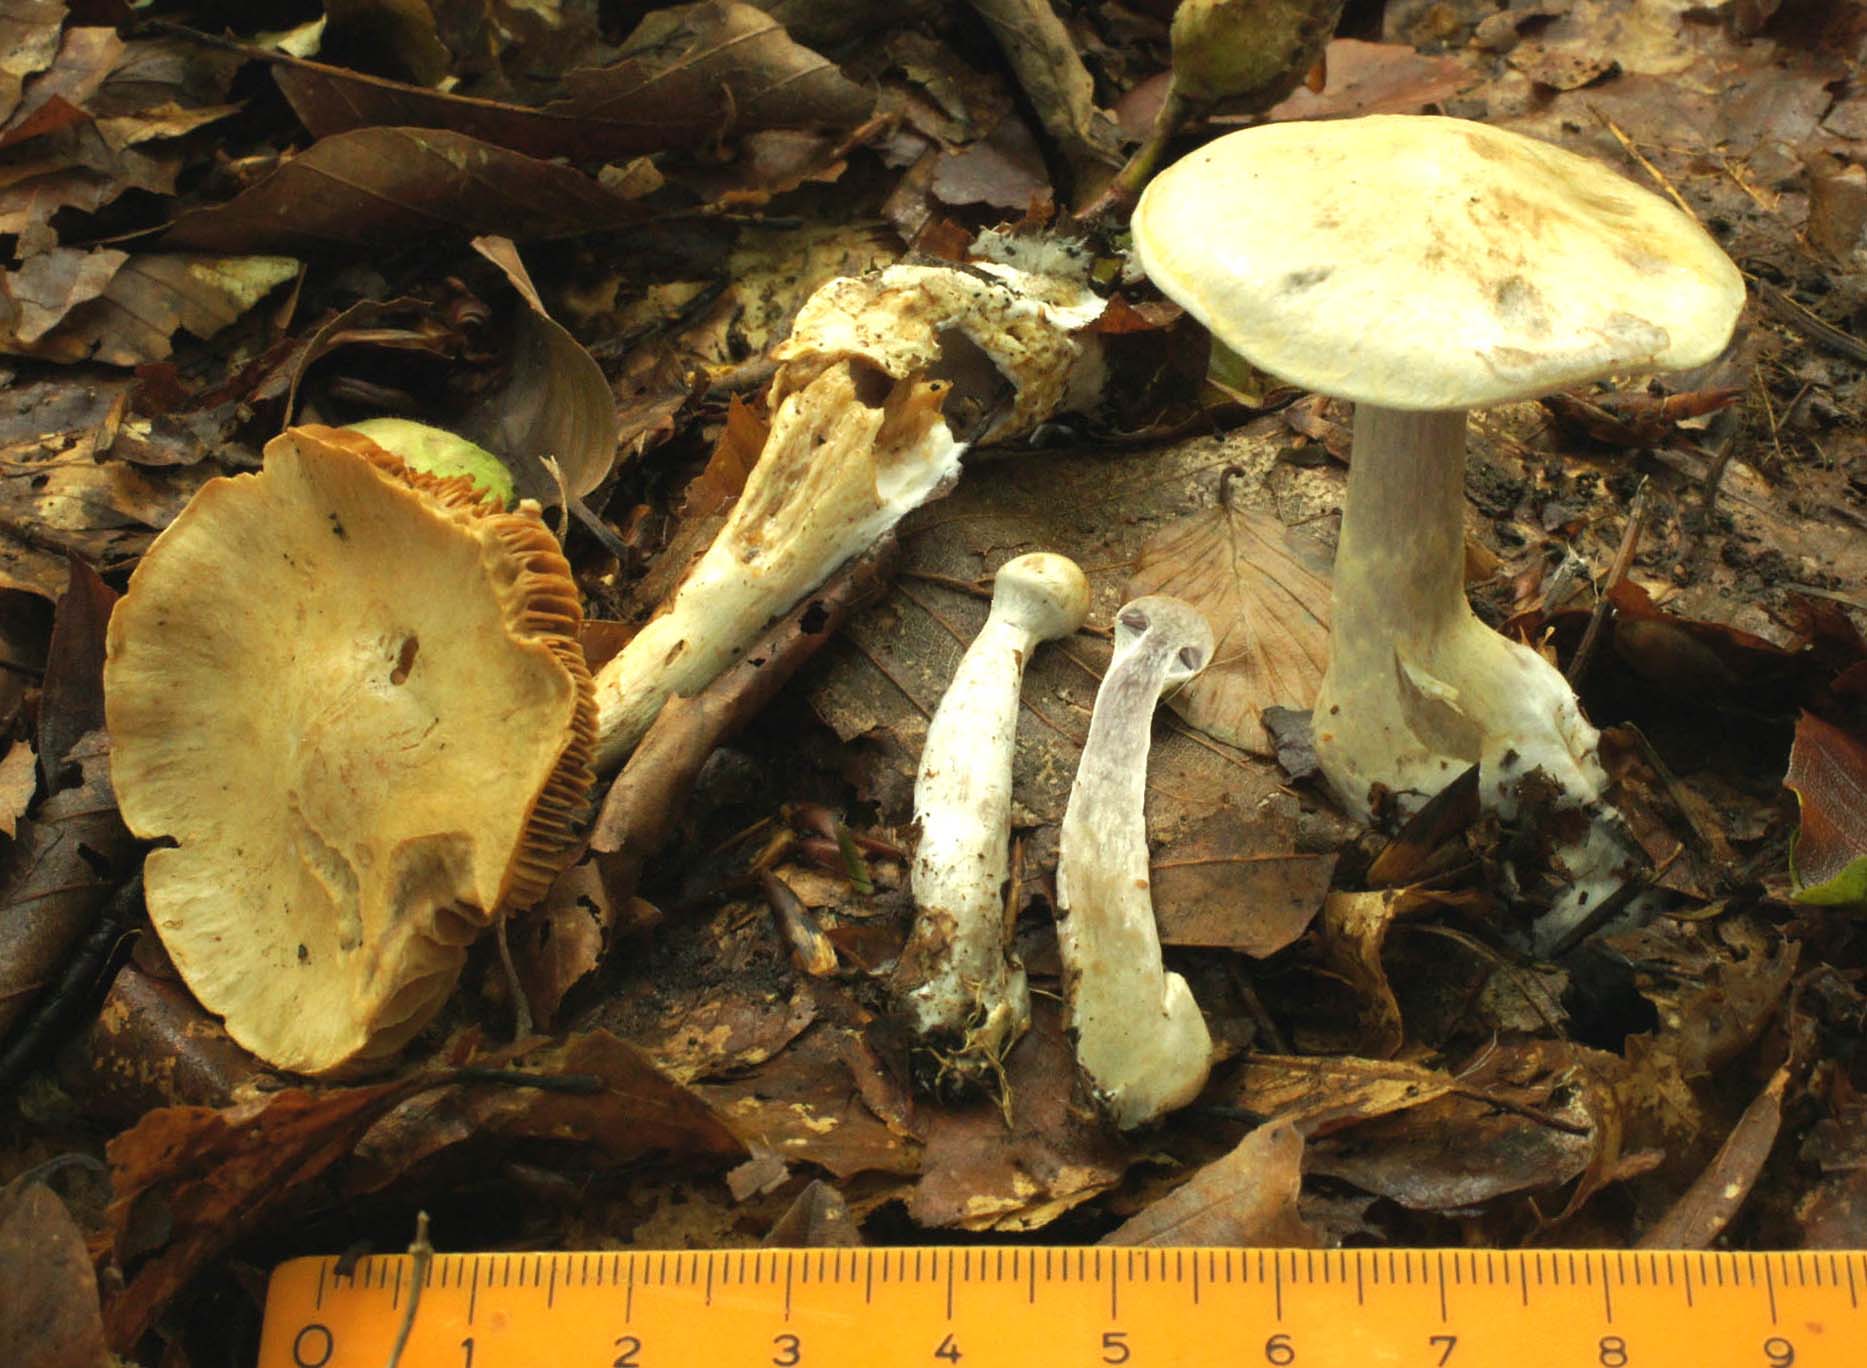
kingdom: Fungi
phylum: Basidiomycota
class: Agaricomycetes
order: Agaricales
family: Cortinariaceae
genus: Cortinarius
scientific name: Cortinarius anomalus
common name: Variable webcap
